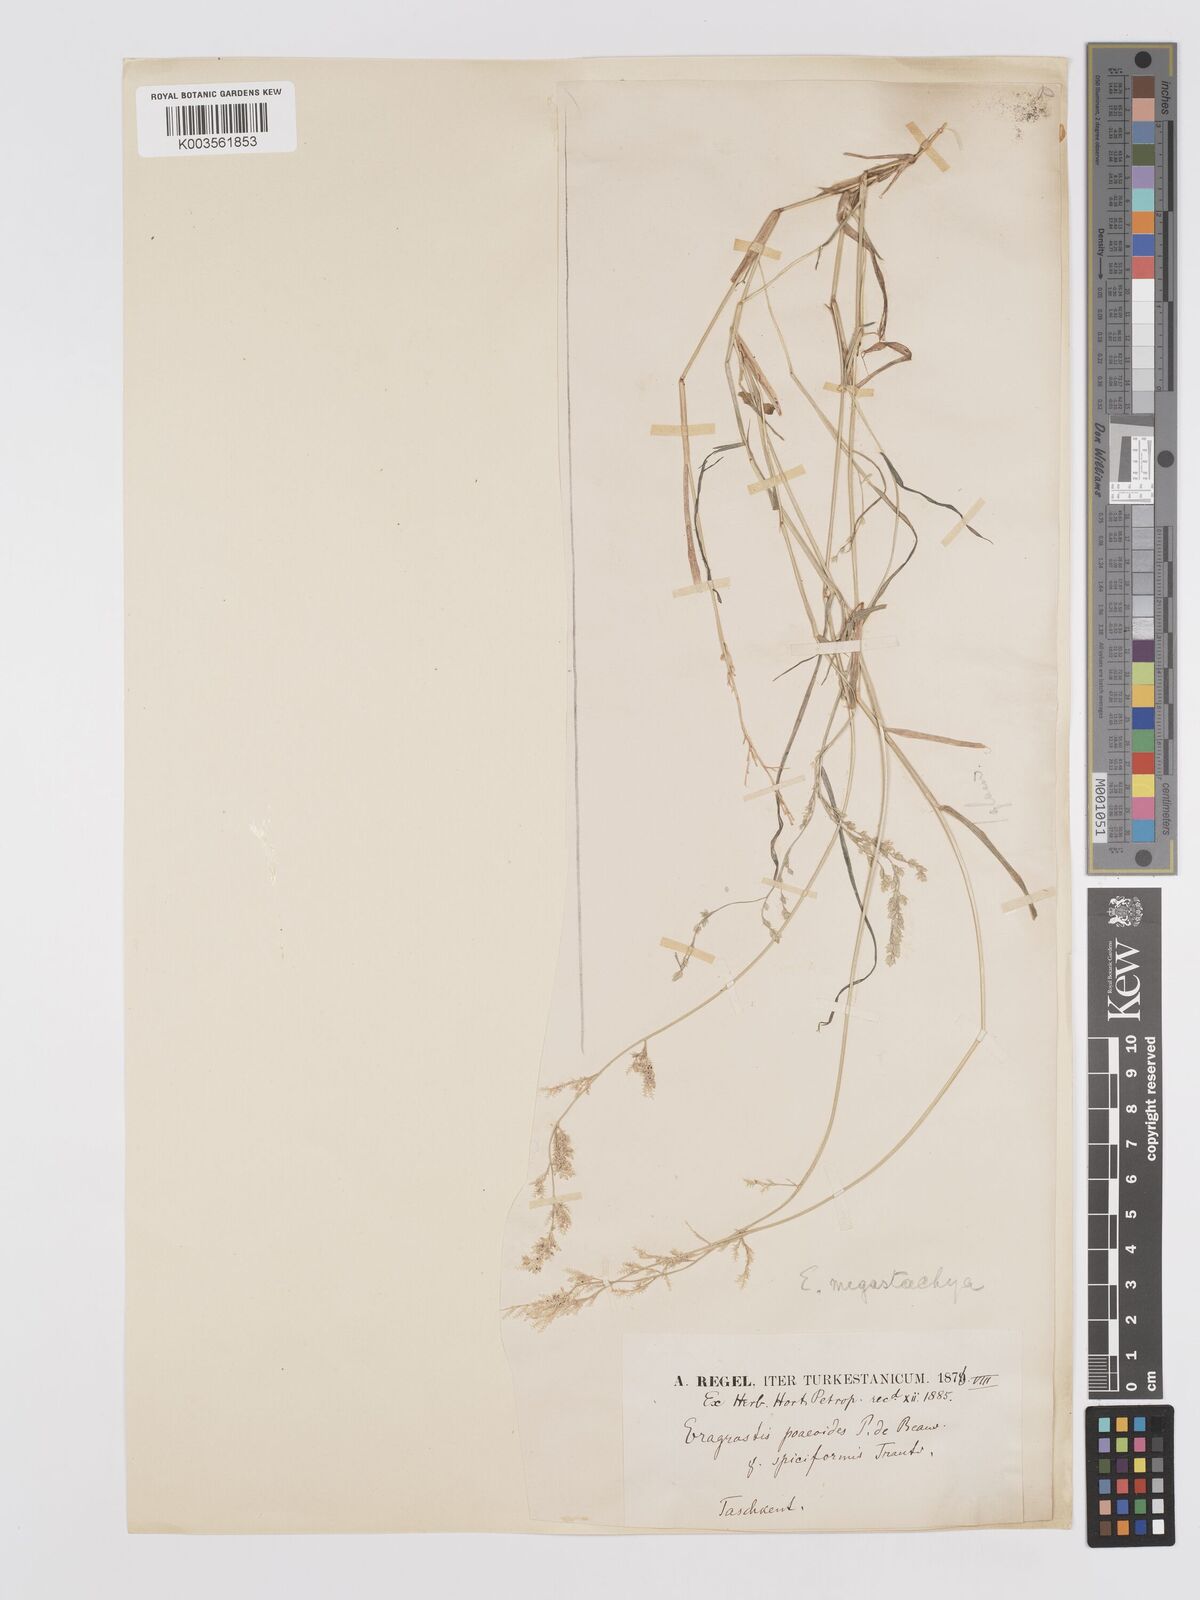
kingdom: Plantae
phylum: Tracheophyta
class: Liliopsida
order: Poales
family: Poaceae
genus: Eragrostis
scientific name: Eragrostis cilianensis
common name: Stinkgrass
